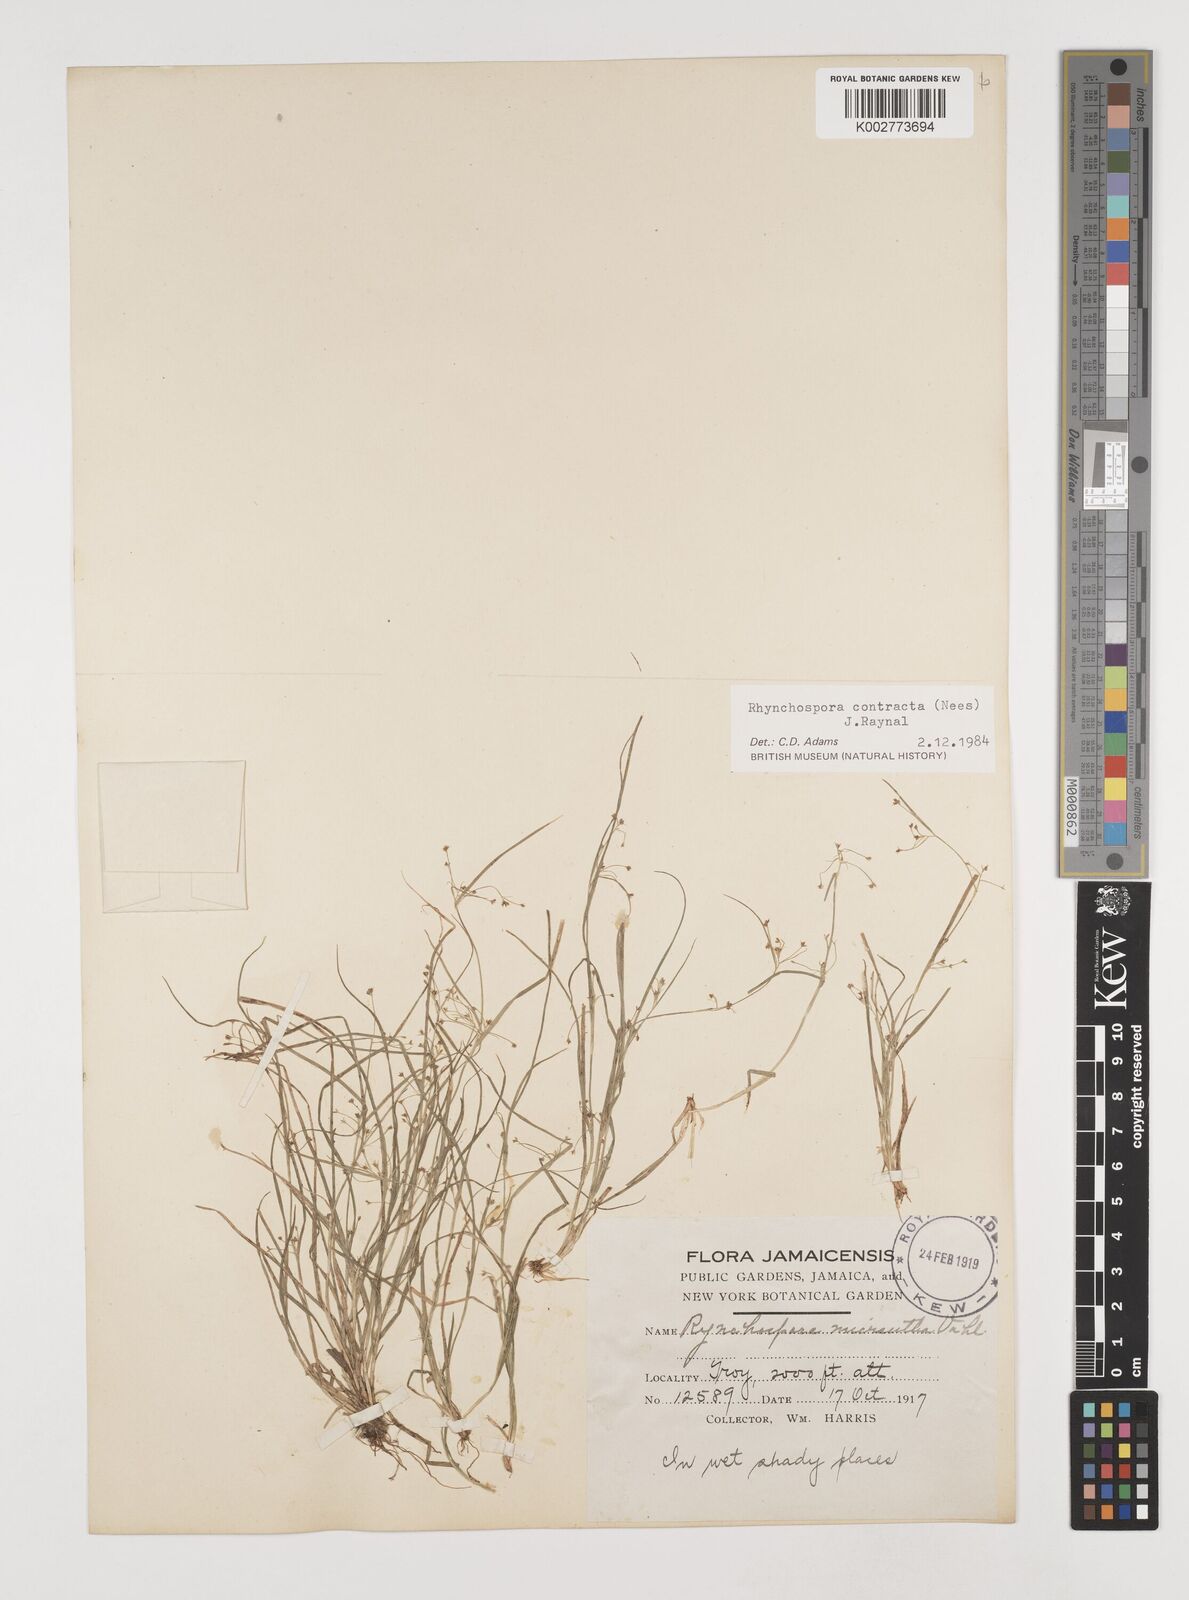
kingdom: Plantae
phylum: Tracheophyta
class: Liliopsida
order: Poales
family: Cyperaceae
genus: Rhynchospora
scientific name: Rhynchospora contracta
